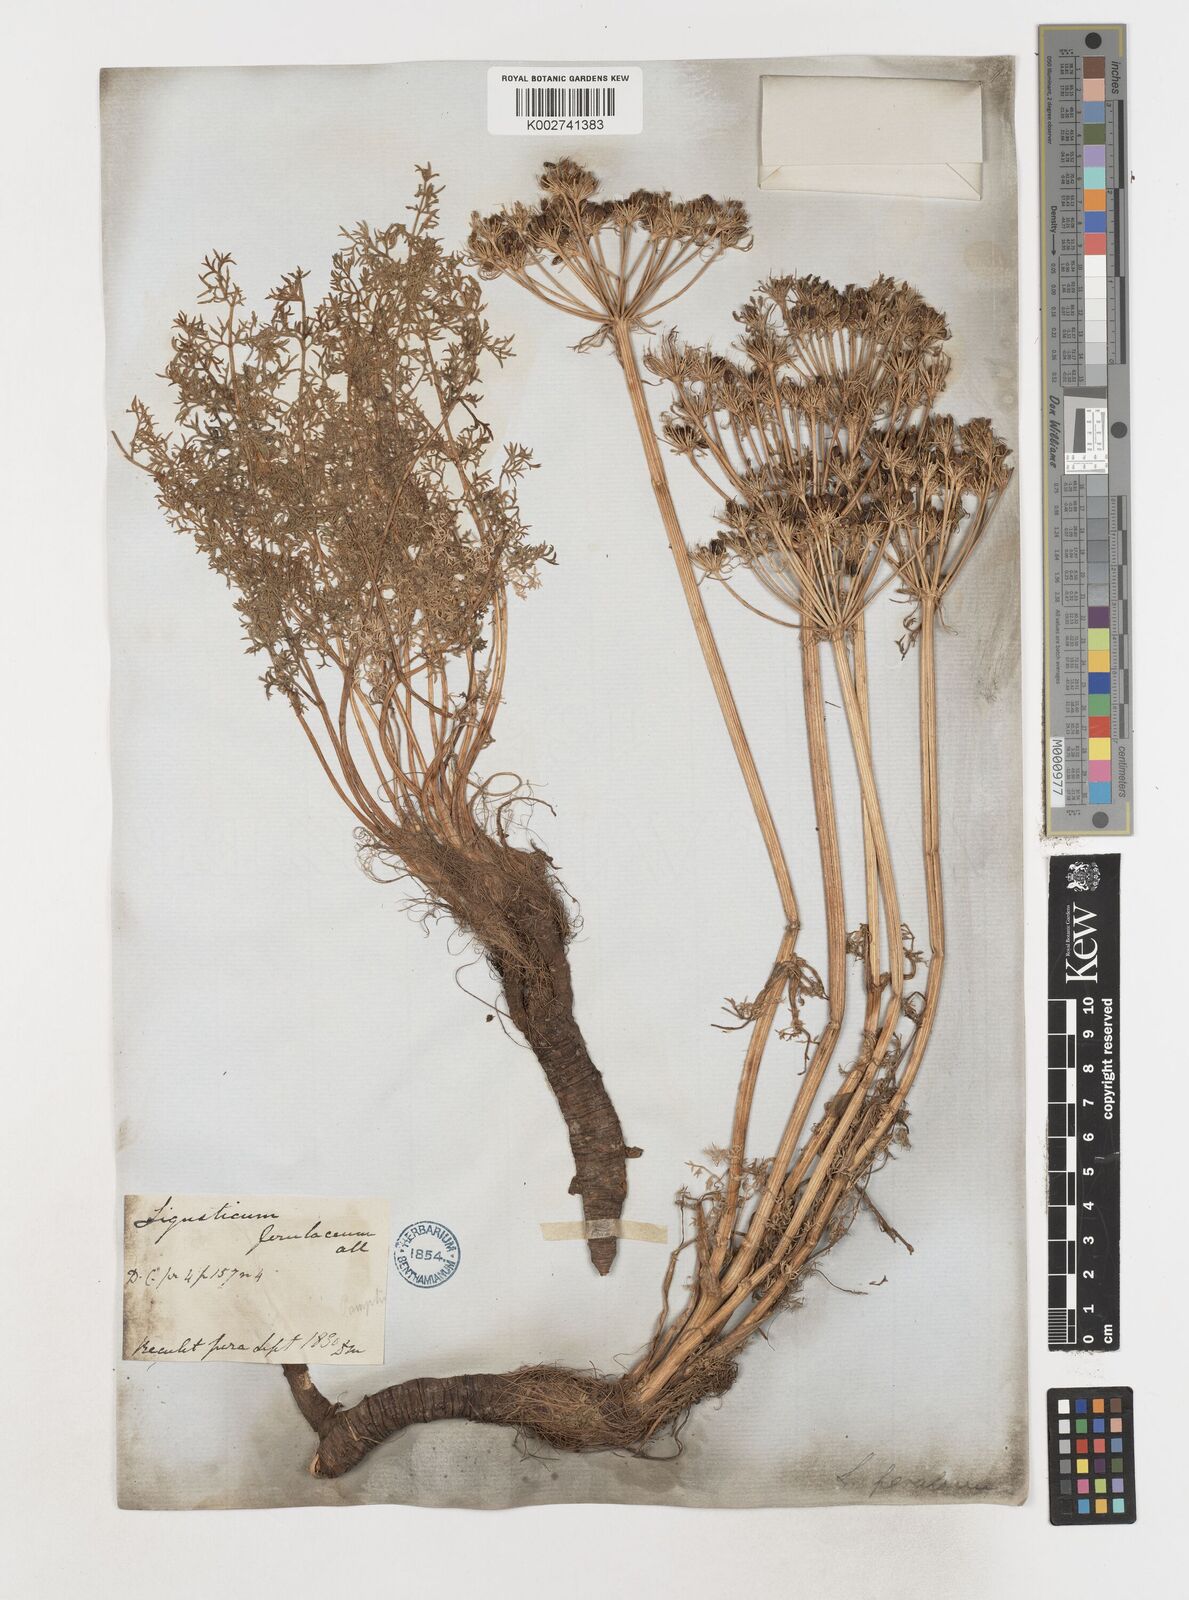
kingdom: Plantae
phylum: Tracheophyta
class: Magnoliopsida
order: Apiales
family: Apiaceae
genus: Coristospermum
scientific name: Coristospermum ferulaceum
